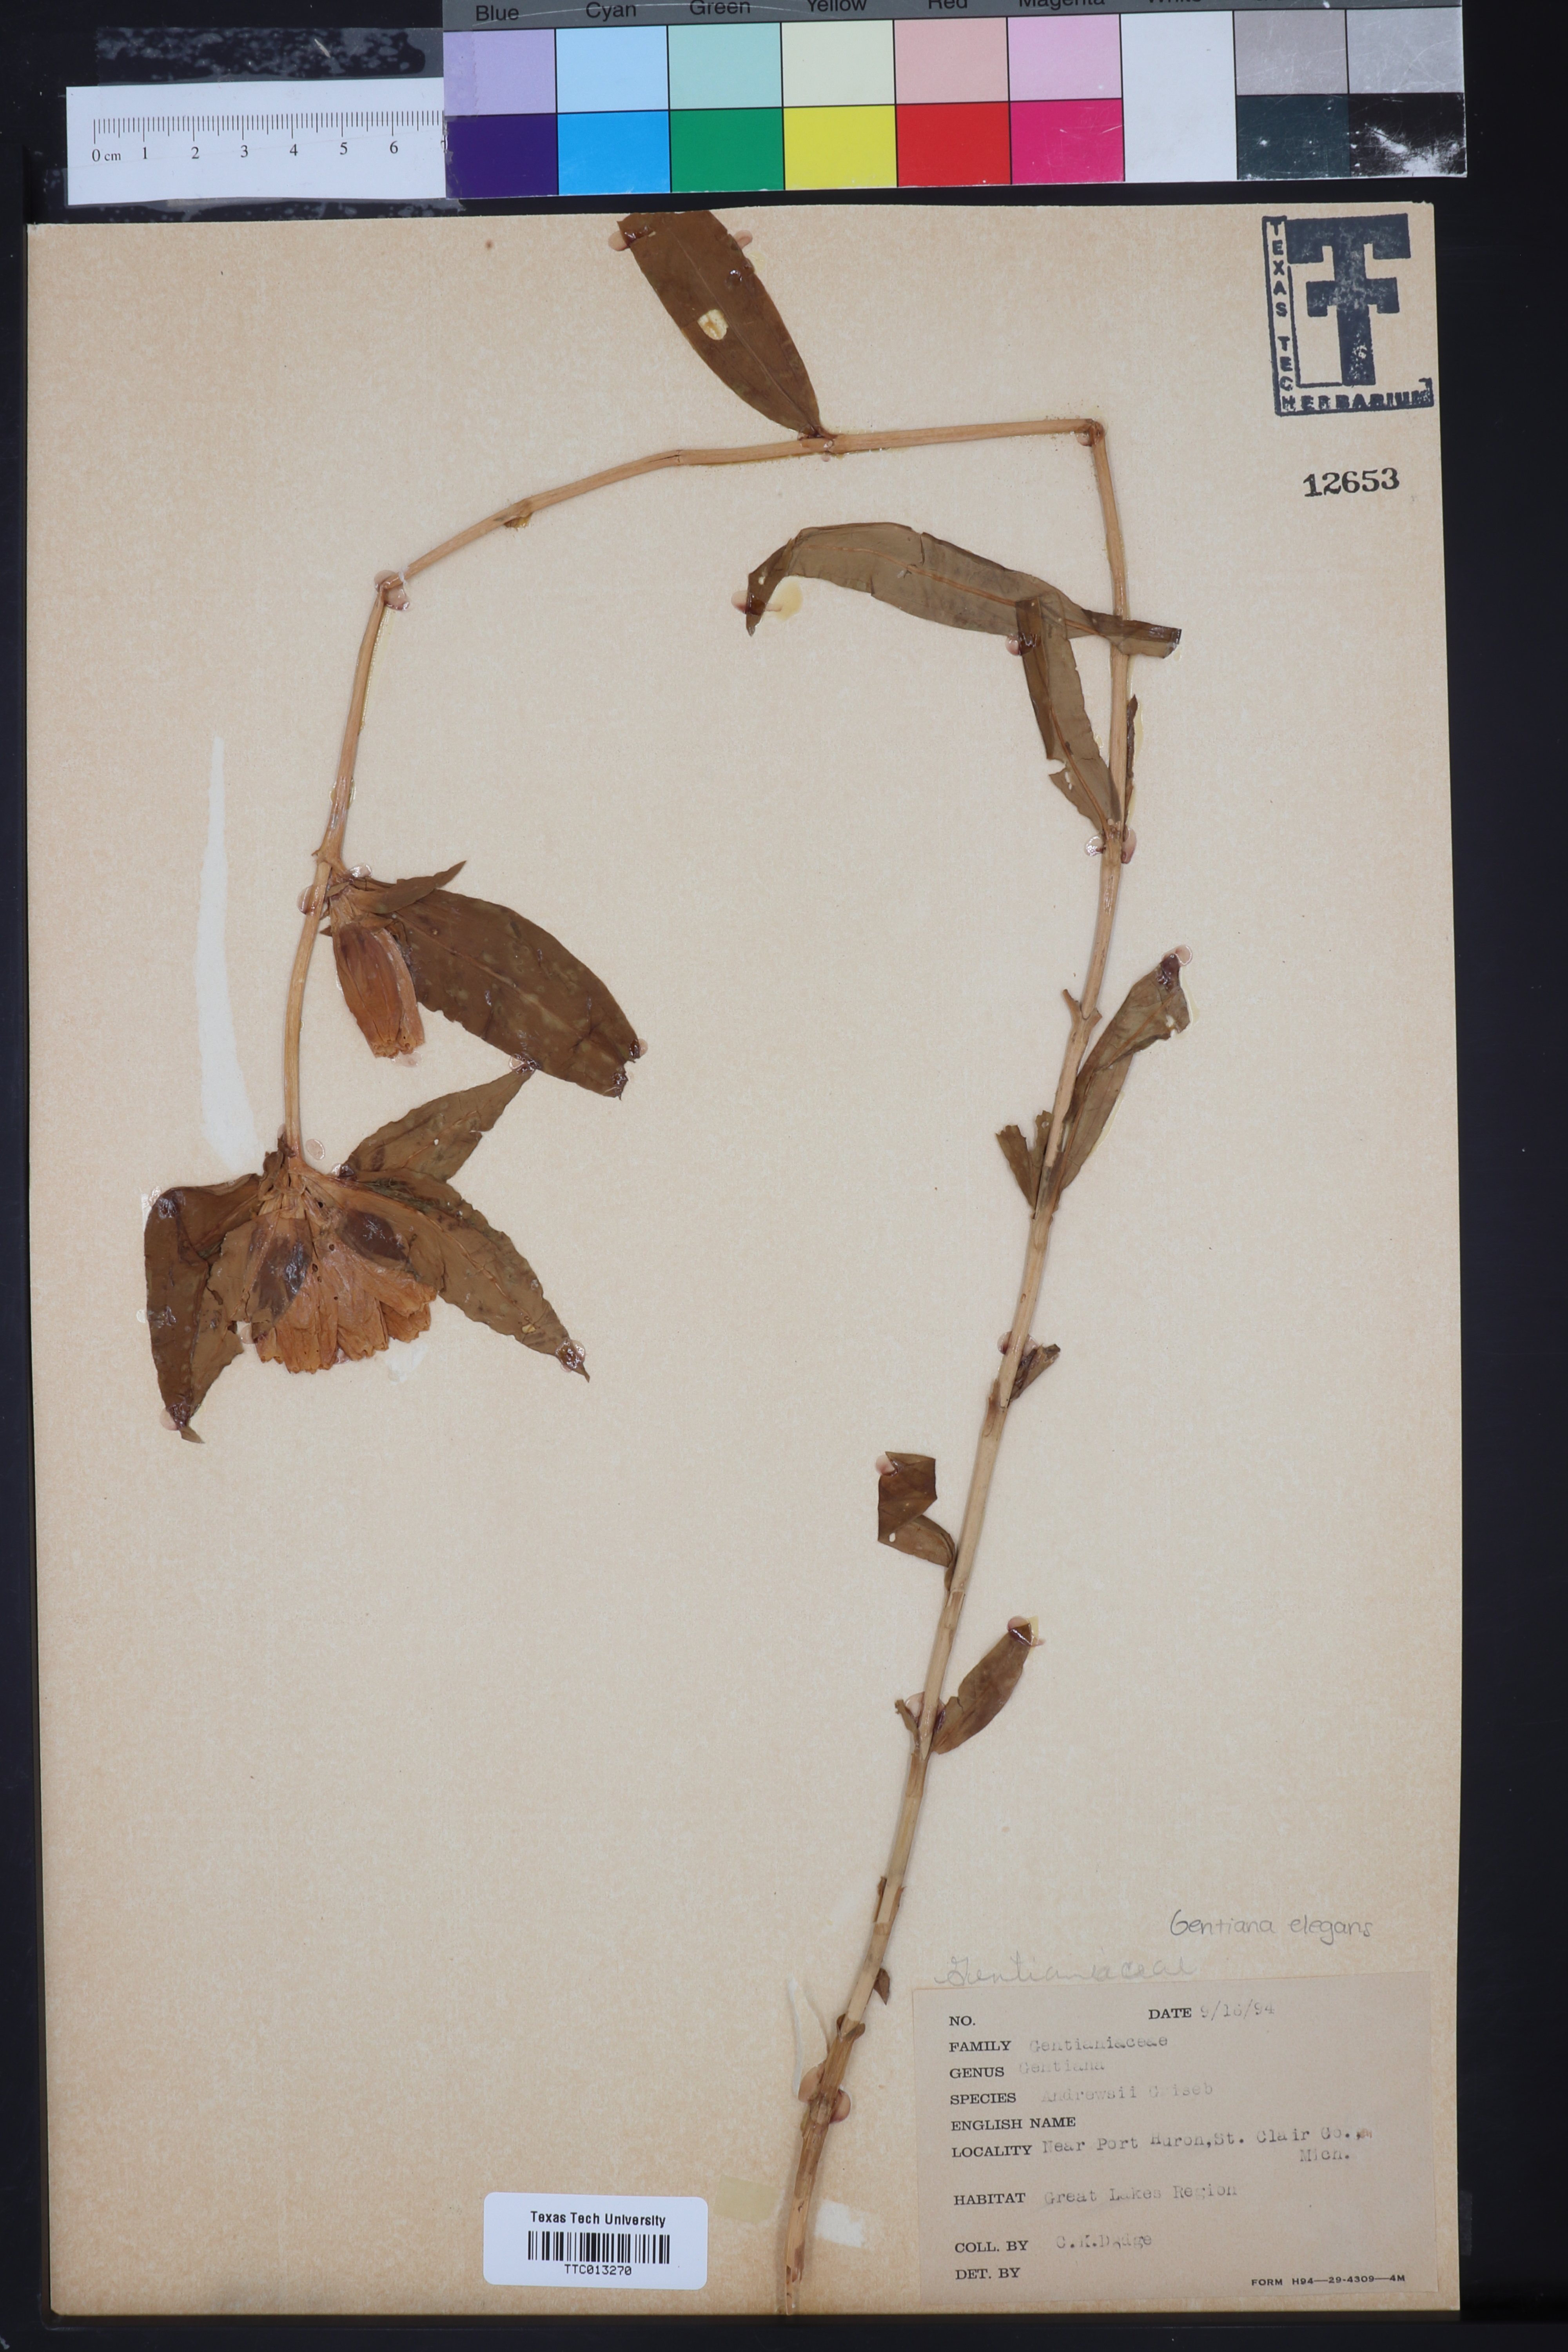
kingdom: Plantae
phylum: Tracheophyta
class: Magnoliopsida
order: Gentianales
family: Gentianaceae
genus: Gentiana
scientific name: Gentiana andrewsii
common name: Bottle gentian
